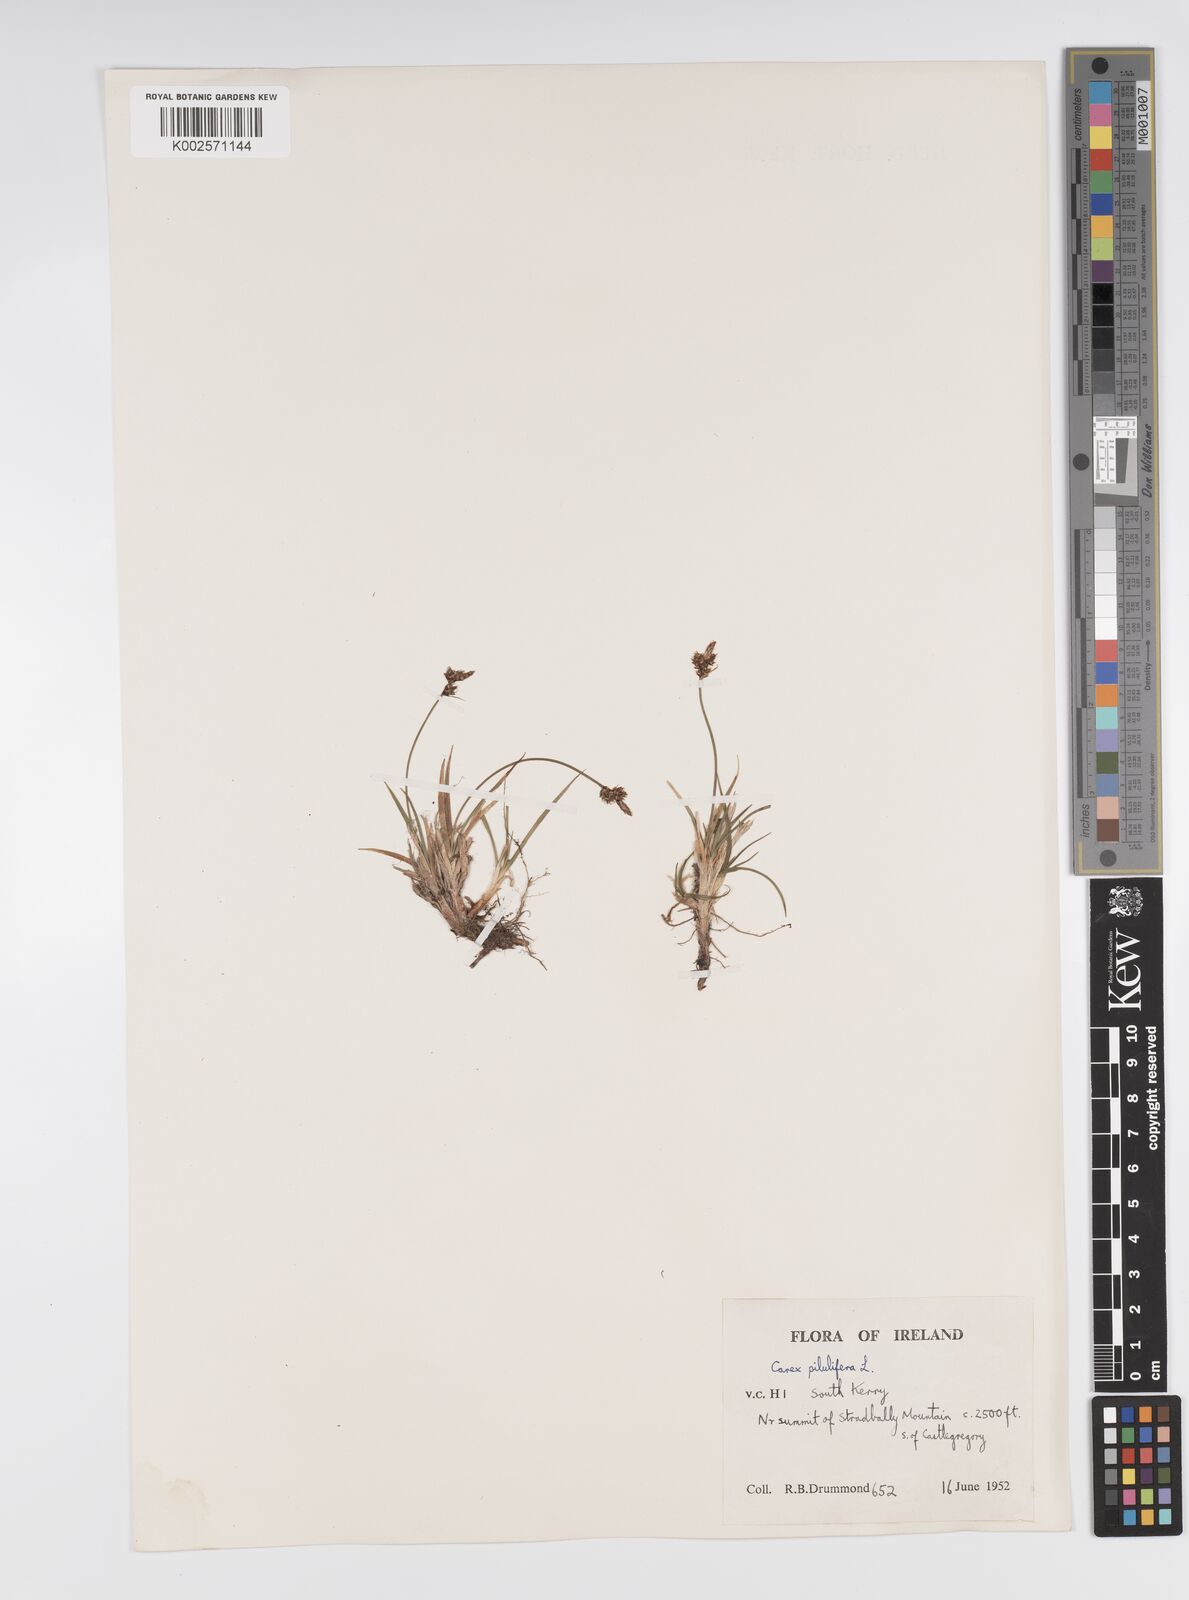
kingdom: Plantae
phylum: Tracheophyta
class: Liliopsida
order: Poales
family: Cyperaceae
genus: Carex
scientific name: Carex pilulifera
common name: Pill sedge
